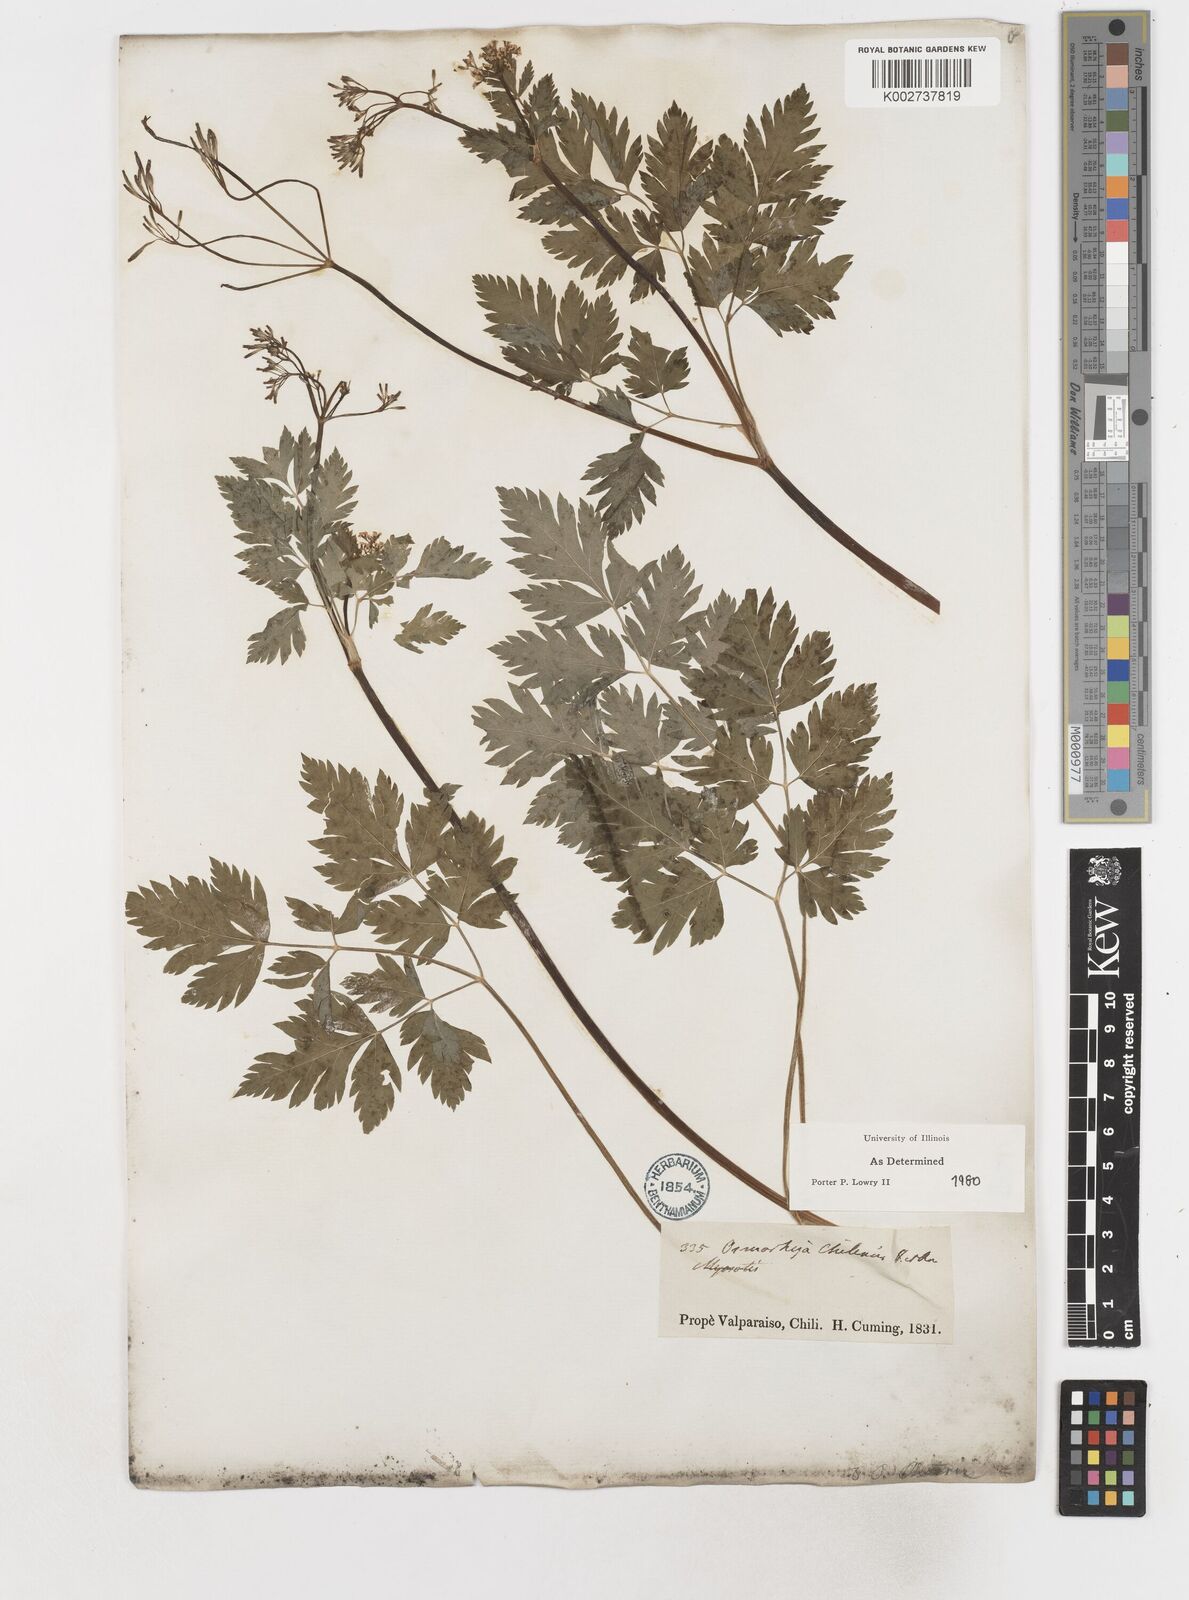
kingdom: Plantae
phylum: Tracheophyta
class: Magnoliopsida
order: Apiales
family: Apiaceae
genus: Osmorhiza
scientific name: Osmorhiza berteroi
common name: Mountain sweet cicely
